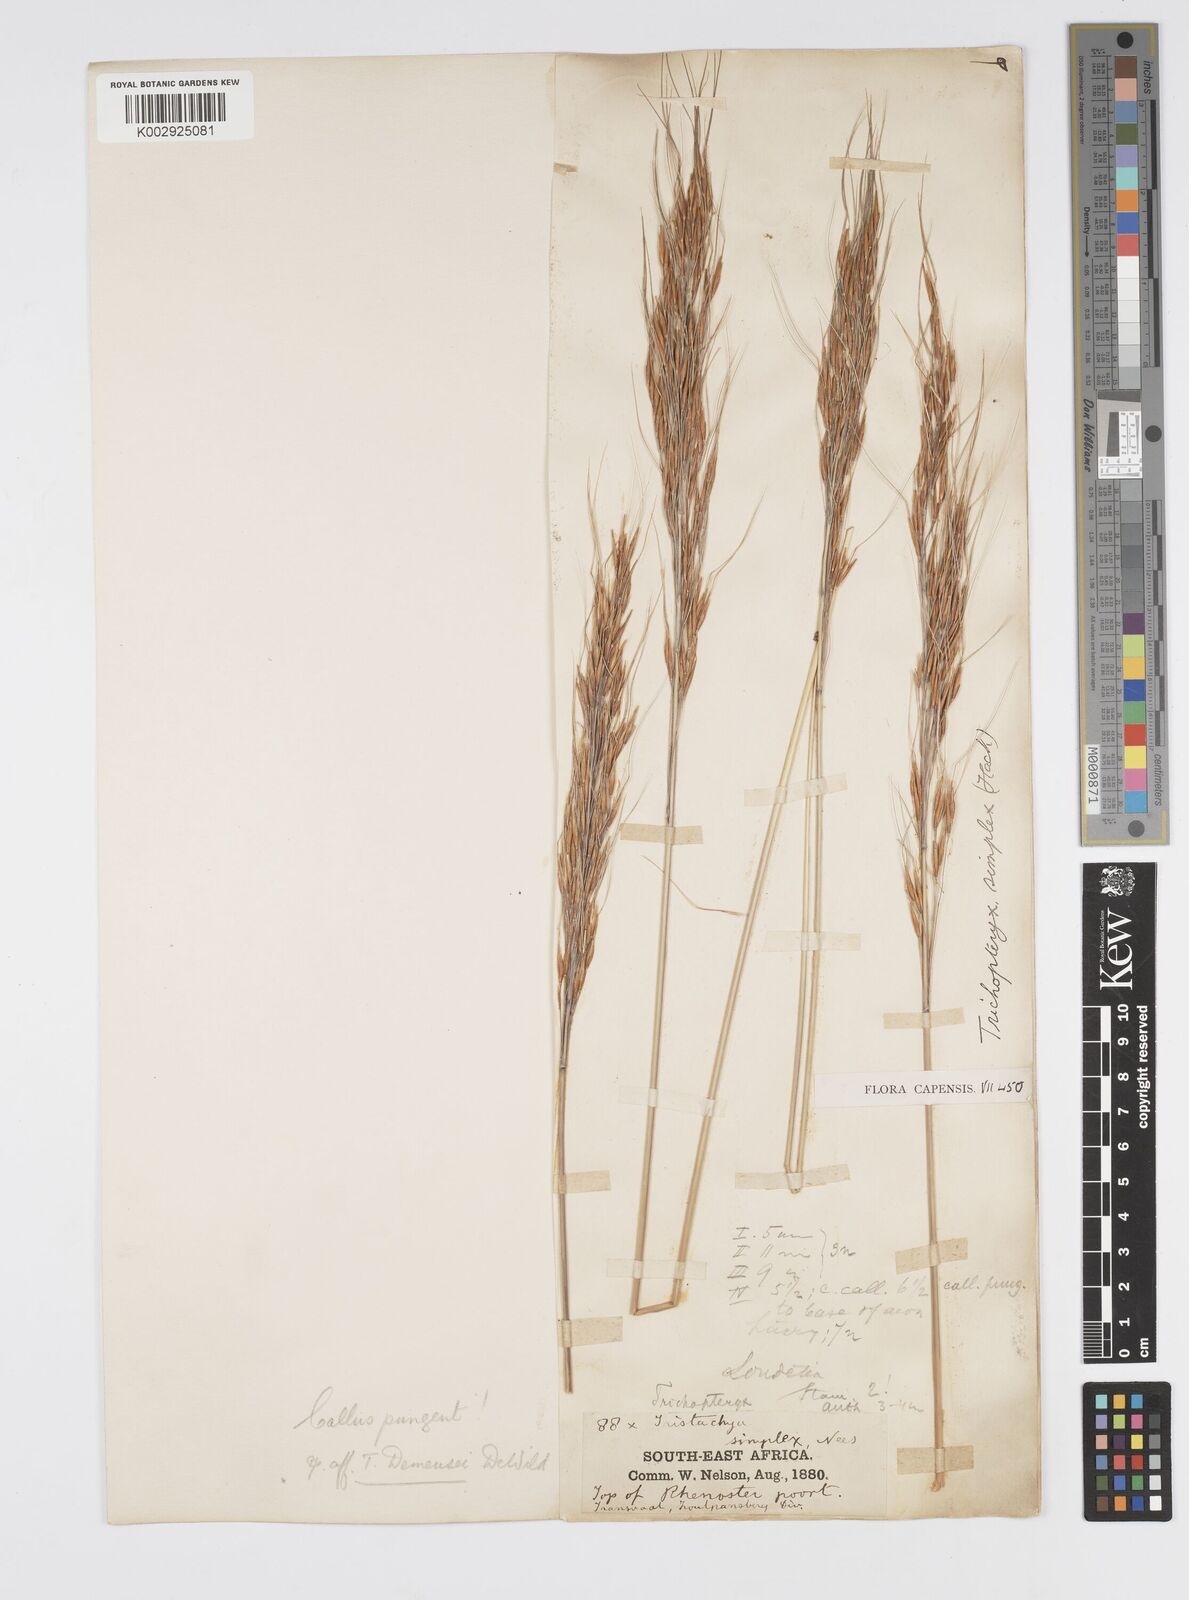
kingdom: Plantae
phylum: Tracheophyta
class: Liliopsida
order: Poales
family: Poaceae
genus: Loudetia
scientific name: Loudetia
